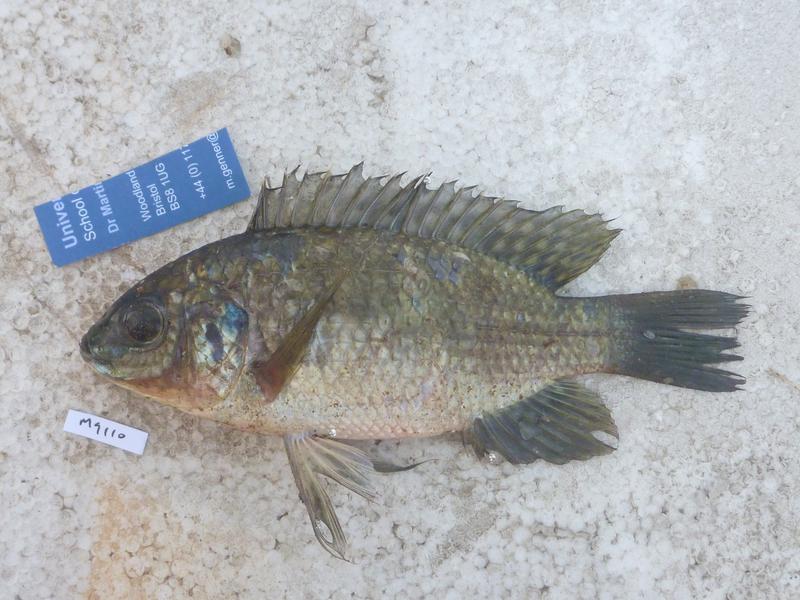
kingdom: Animalia
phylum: Chordata
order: Perciformes
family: Cichlidae
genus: Oreochromis
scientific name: Oreochromis leucostictus
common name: Blue spotted tilapia
